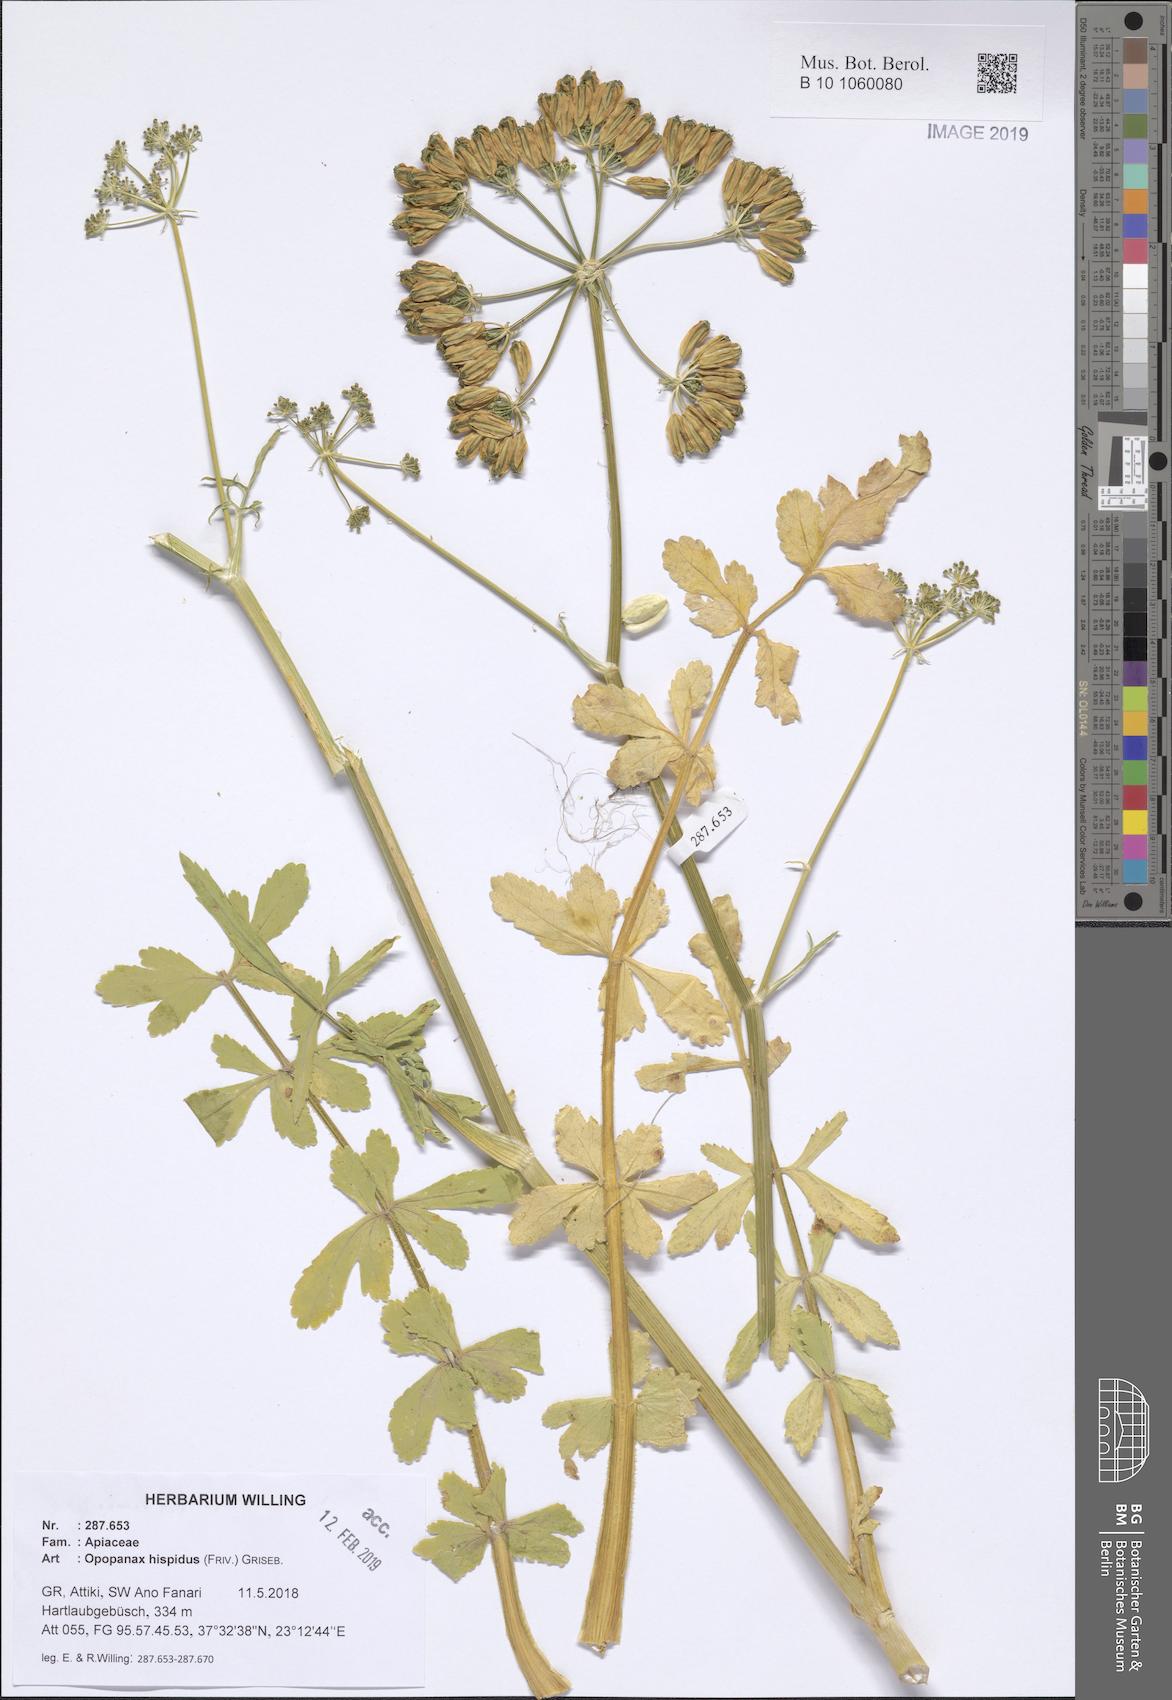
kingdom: Plantae
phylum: Tracheophyta
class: Magnoliopsida
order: Apiales
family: Apiaceae
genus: Opopanax
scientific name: Opopanax hispidus
